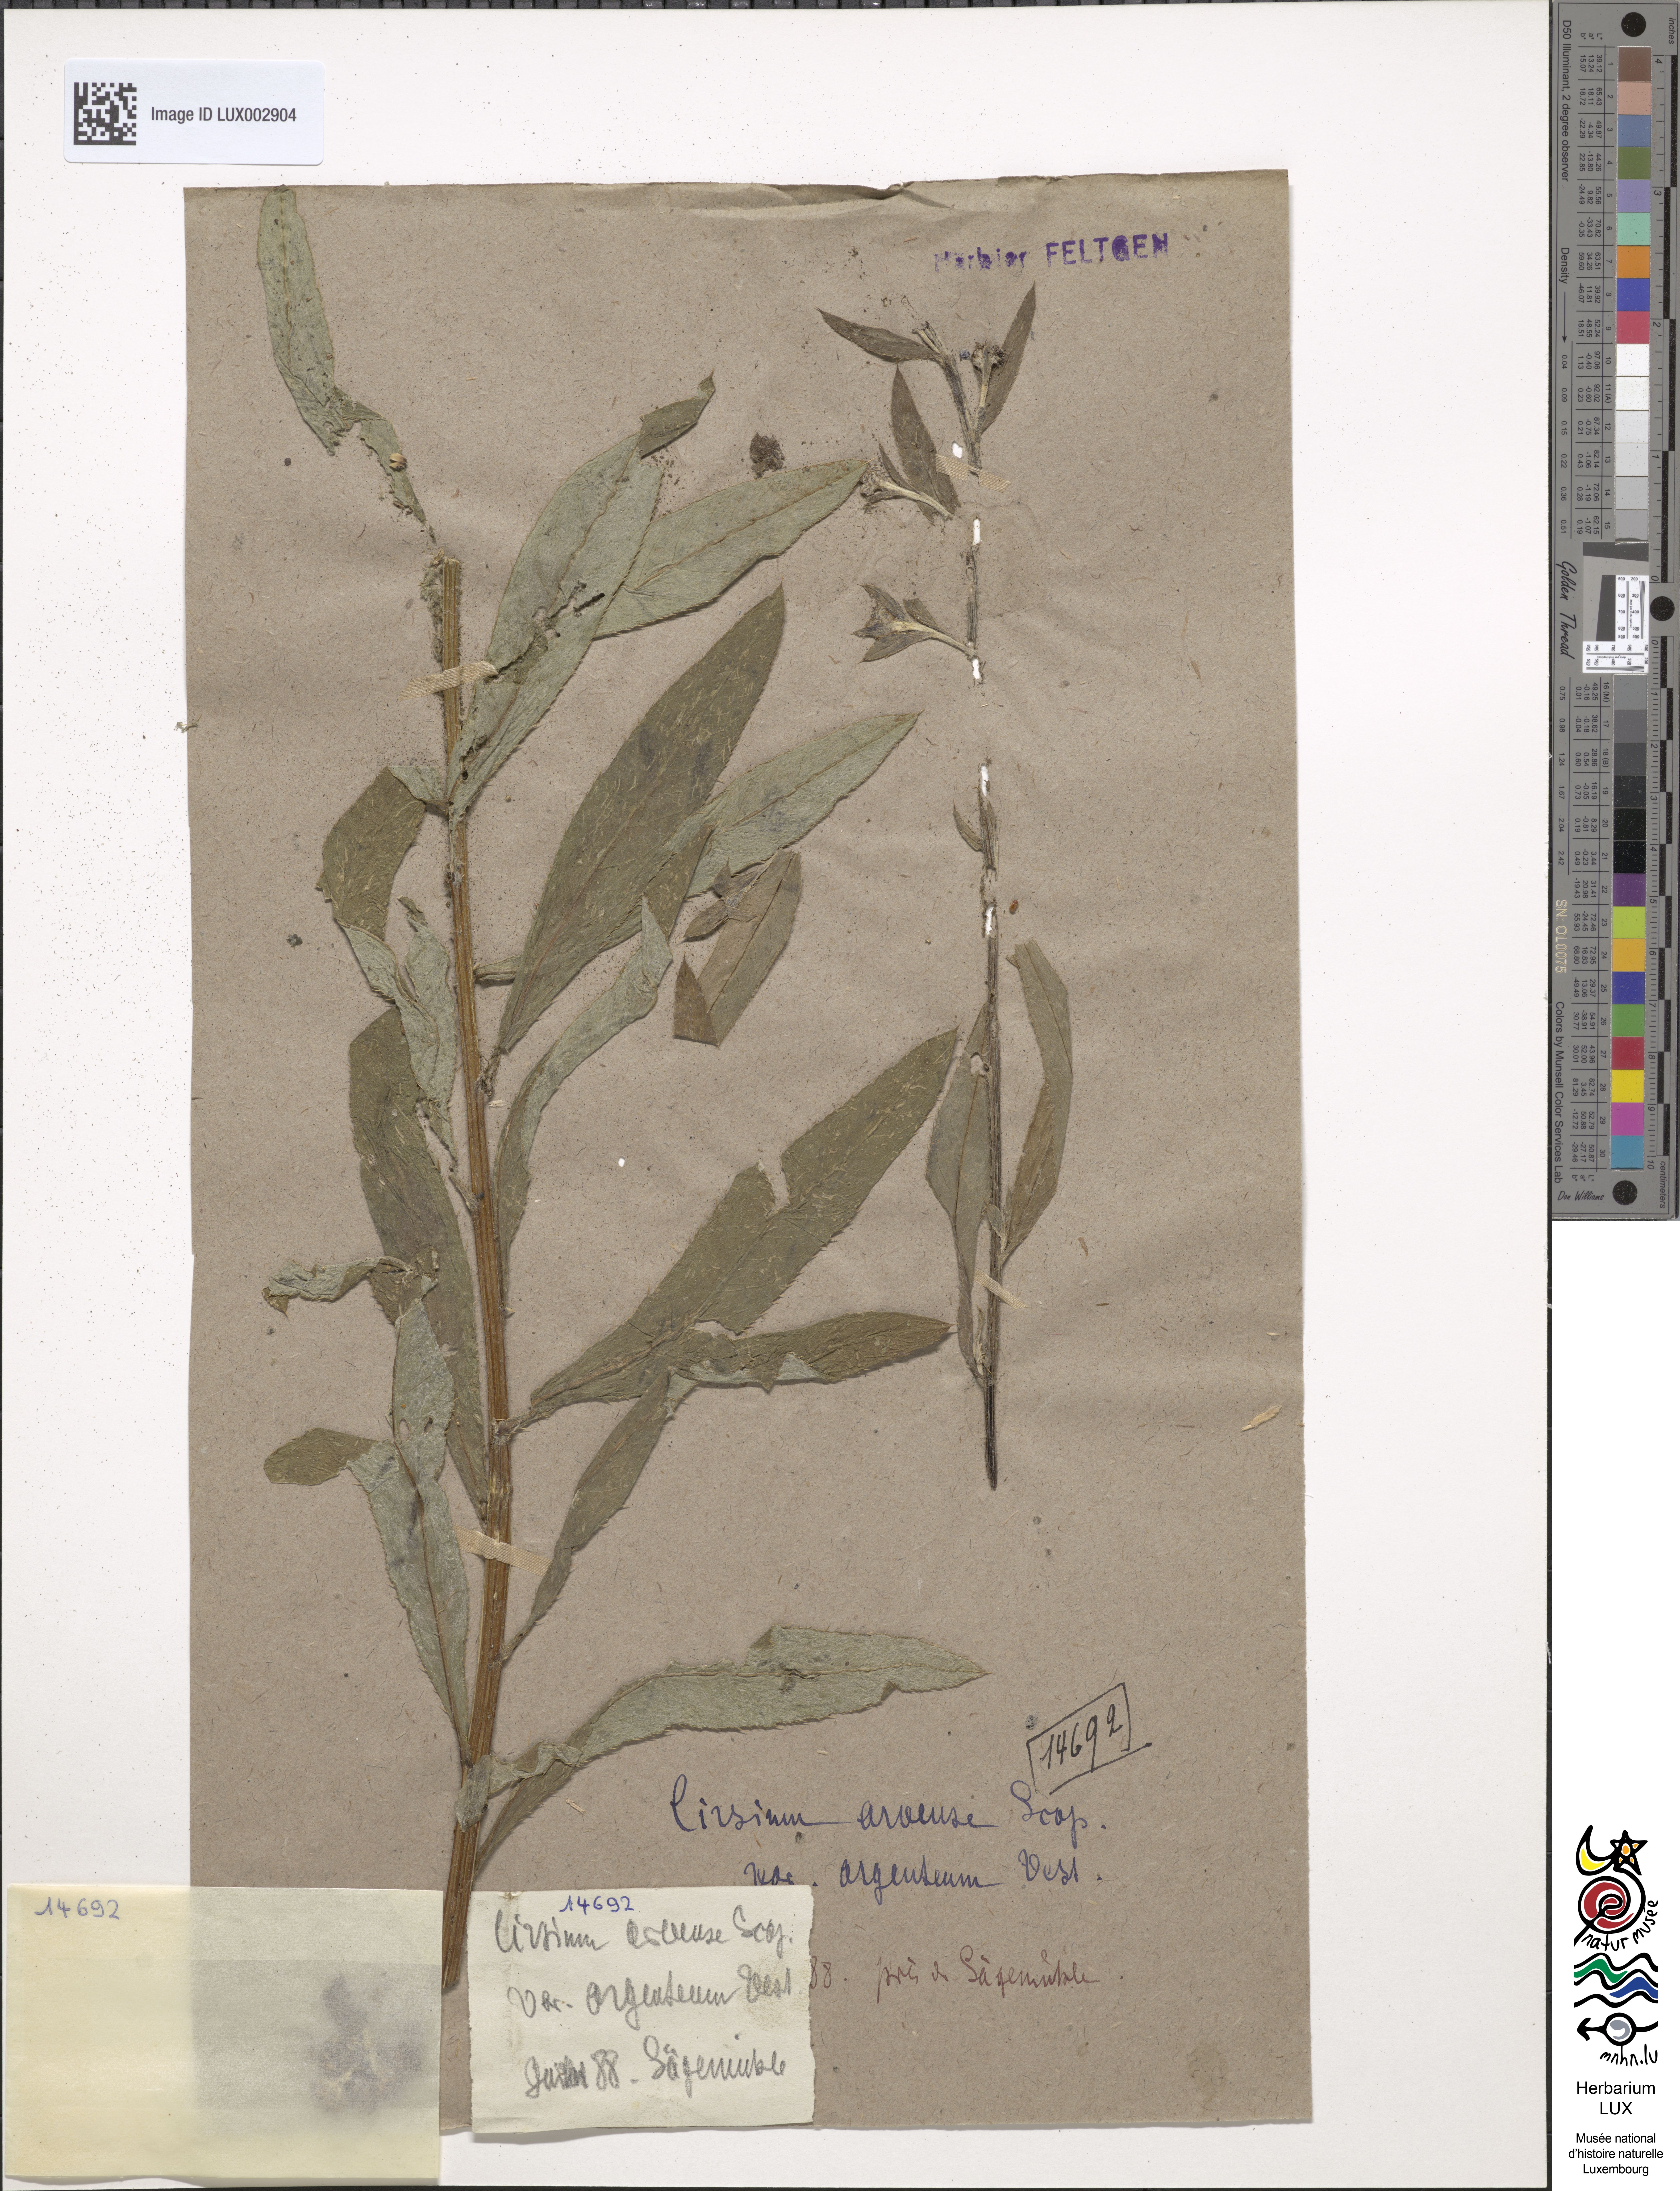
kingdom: Plantae
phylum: Tracheophyta
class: Magnoliopsida
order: Asterales
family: Asteraceae
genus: Cirsium
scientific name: Cirsium arvense
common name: Creeping thistle
